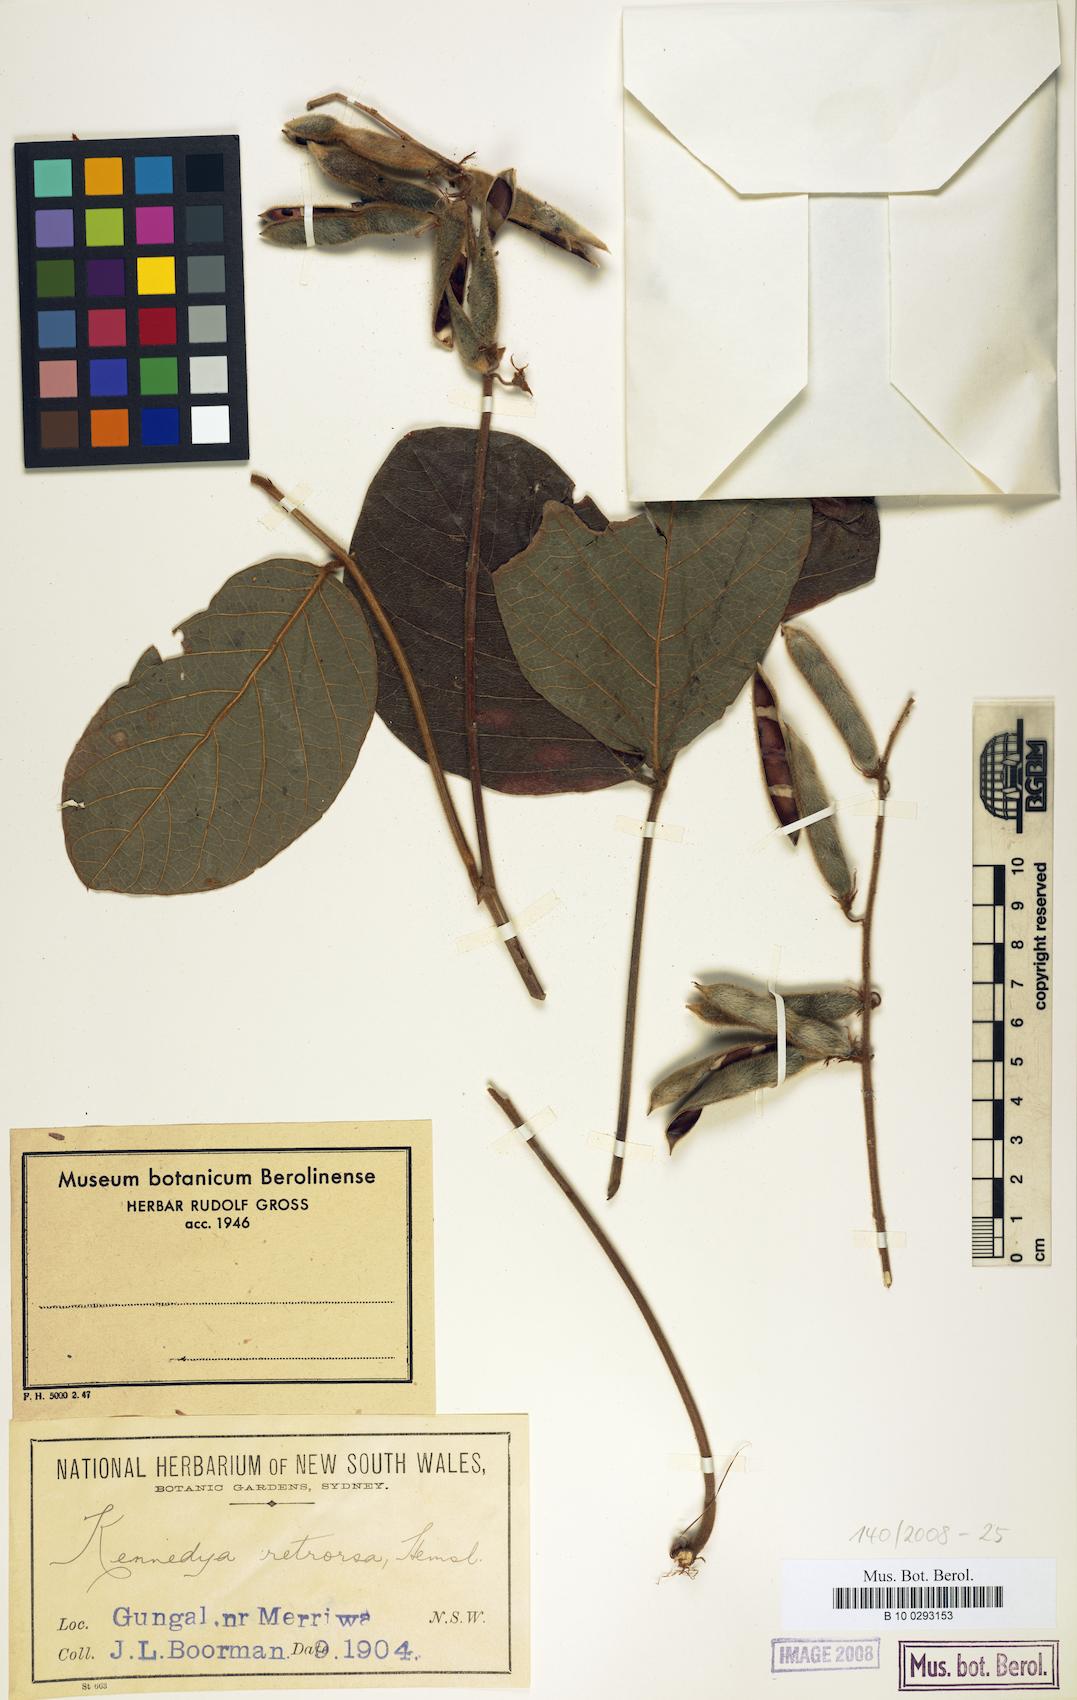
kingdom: Plantae
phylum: Tracheophyta
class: Magnoliopsida
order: Fabales
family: Fabaceae
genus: Kennedia
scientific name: Kennedia retrorsa
